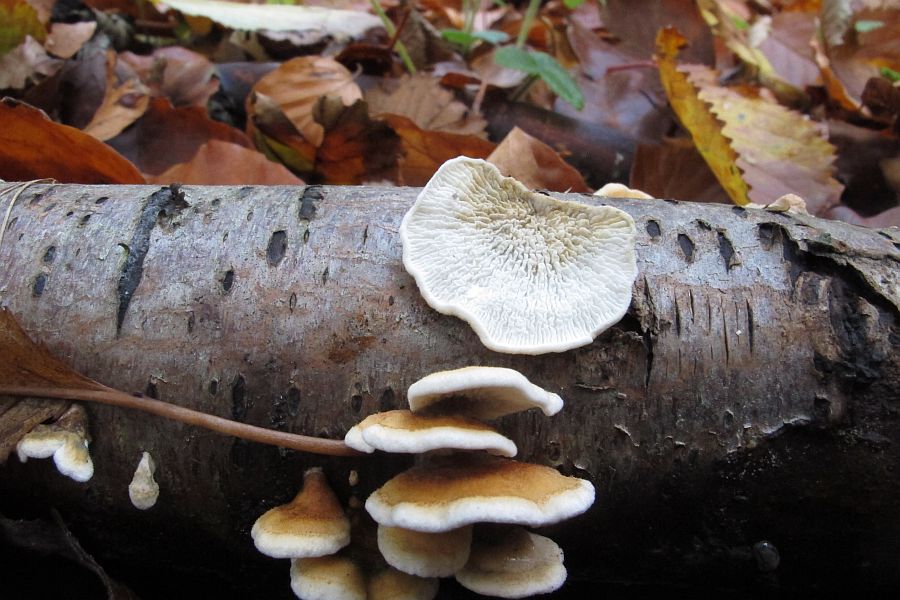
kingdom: Fungi
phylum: Basidiomycota
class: Agaricomycetes
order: Amylocorticiales
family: Amylocorticiaceae
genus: Plicaturopsis
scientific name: Plicaturopsis crispa
